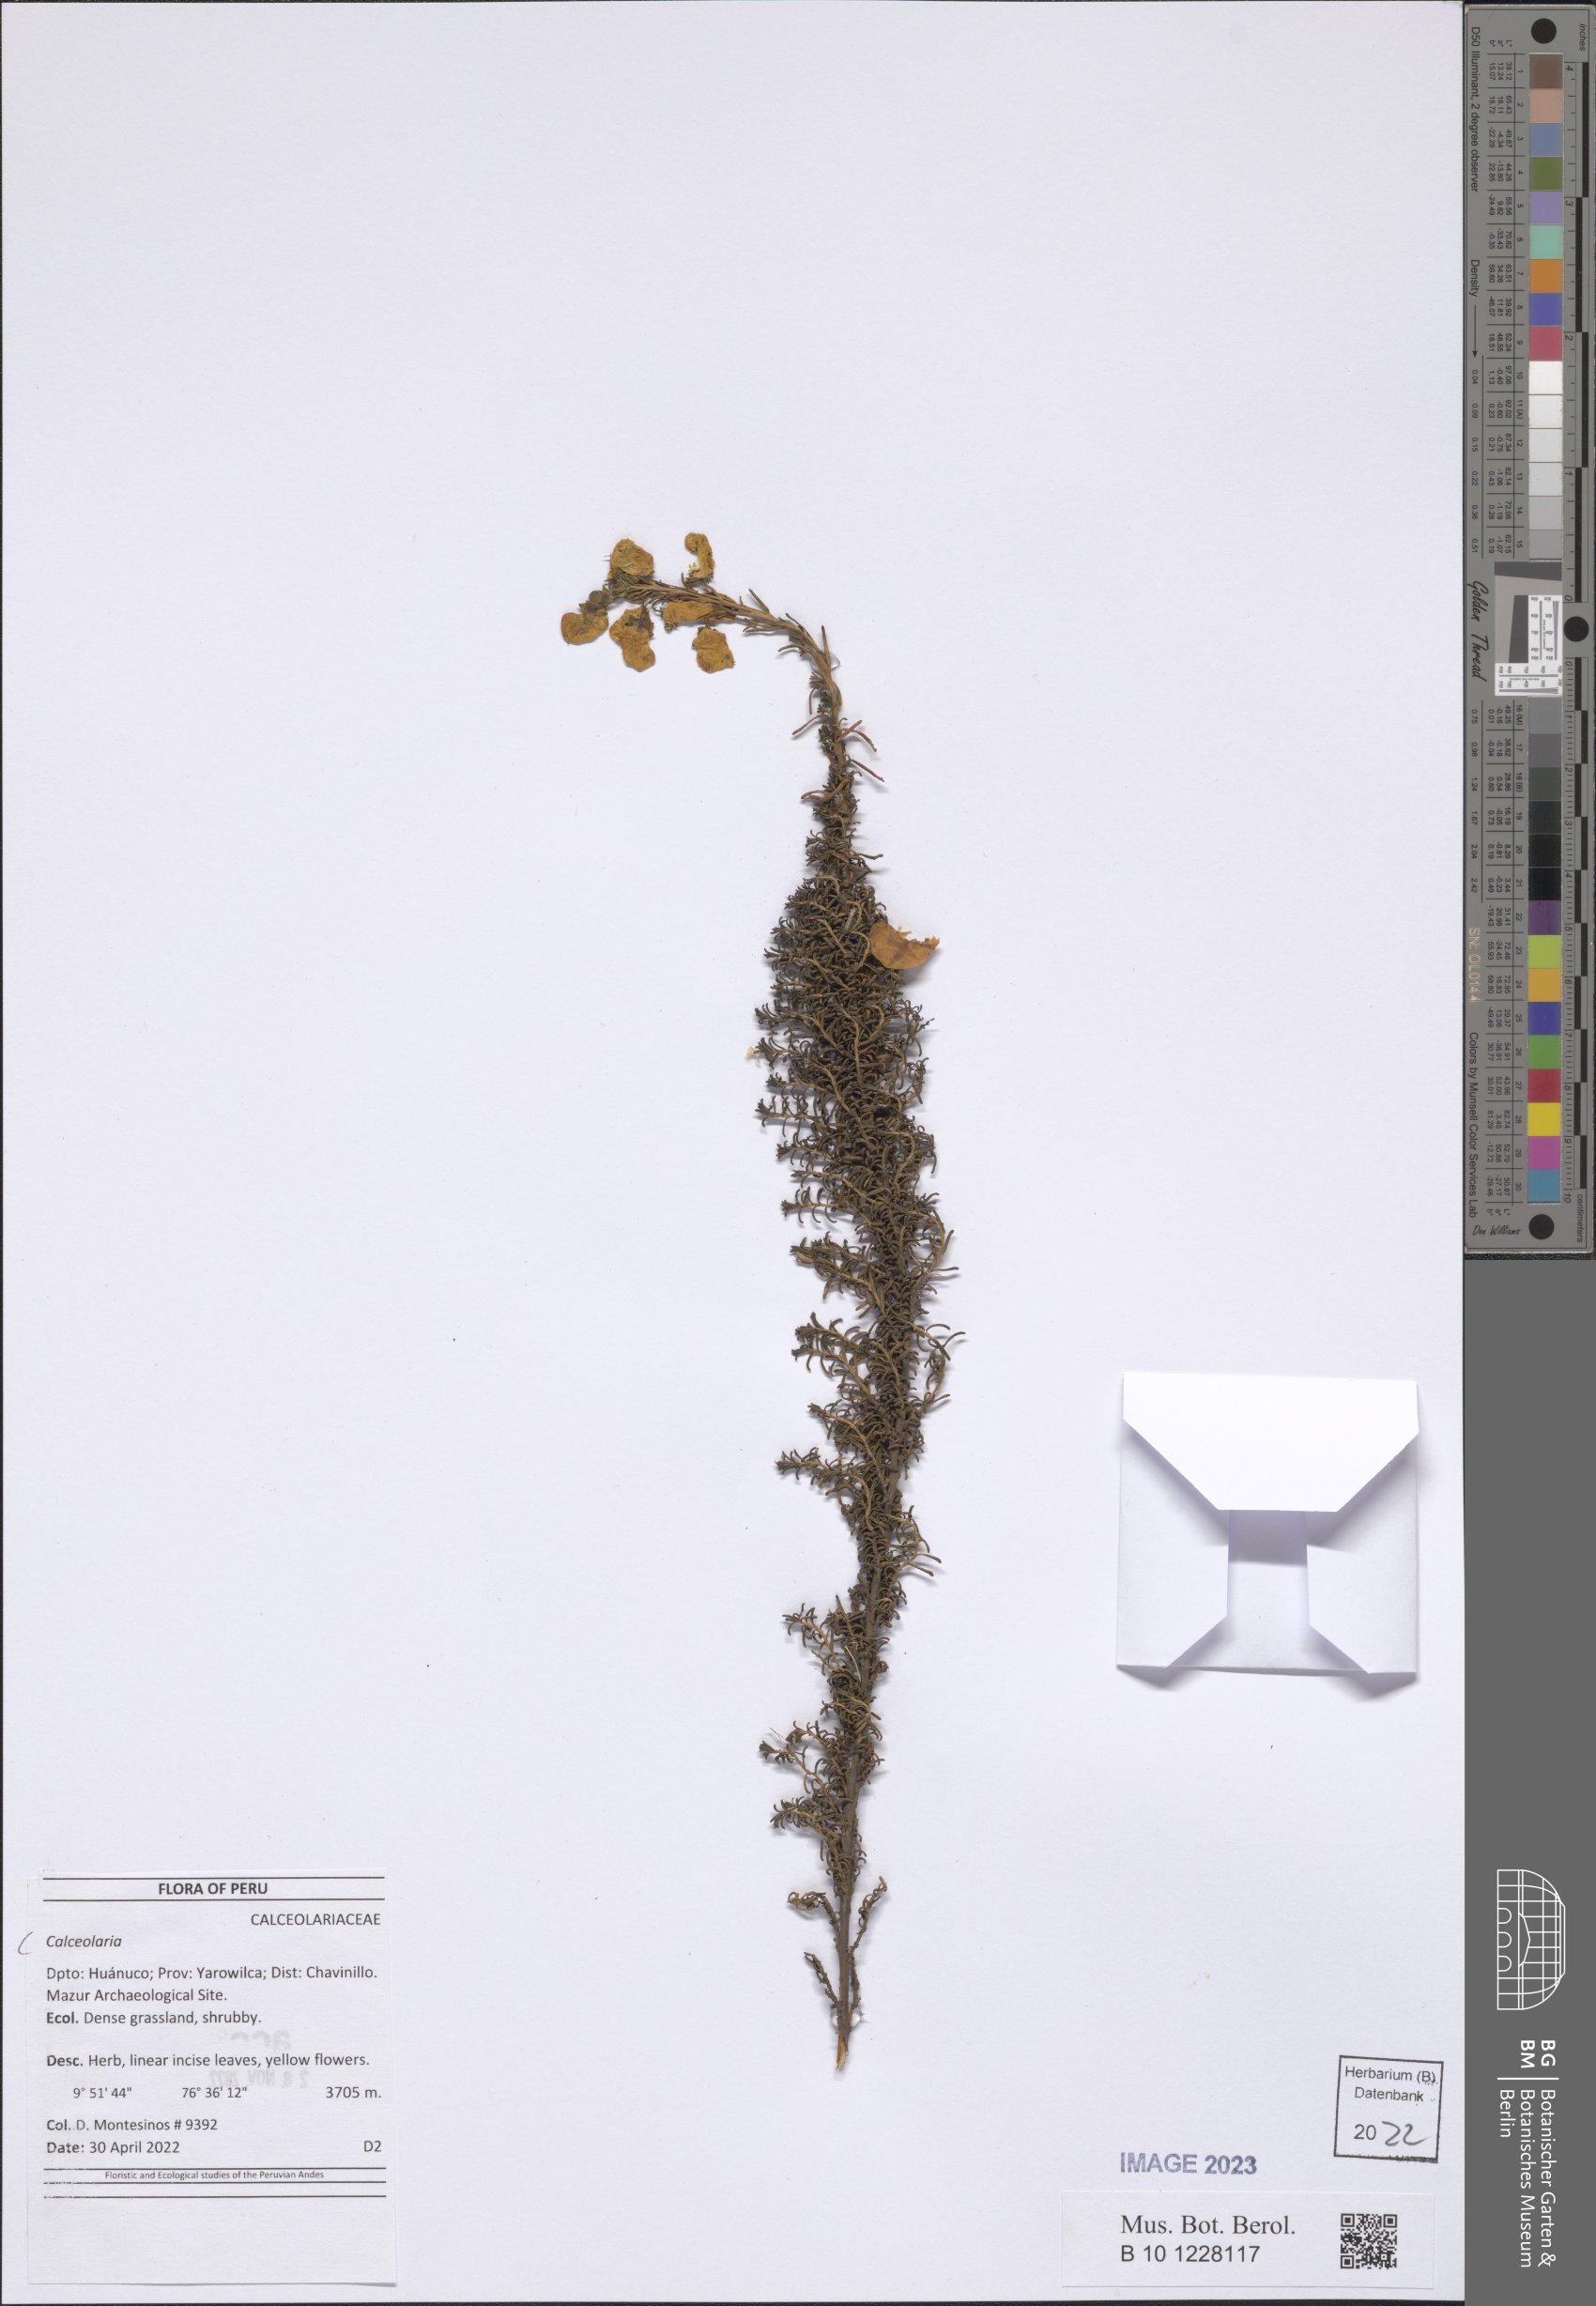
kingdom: Plantae
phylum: Tracheophyta
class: Magnoliopsida
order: Lamiales
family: Calceolariaceae
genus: Calceolaria
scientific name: Calceolaria
